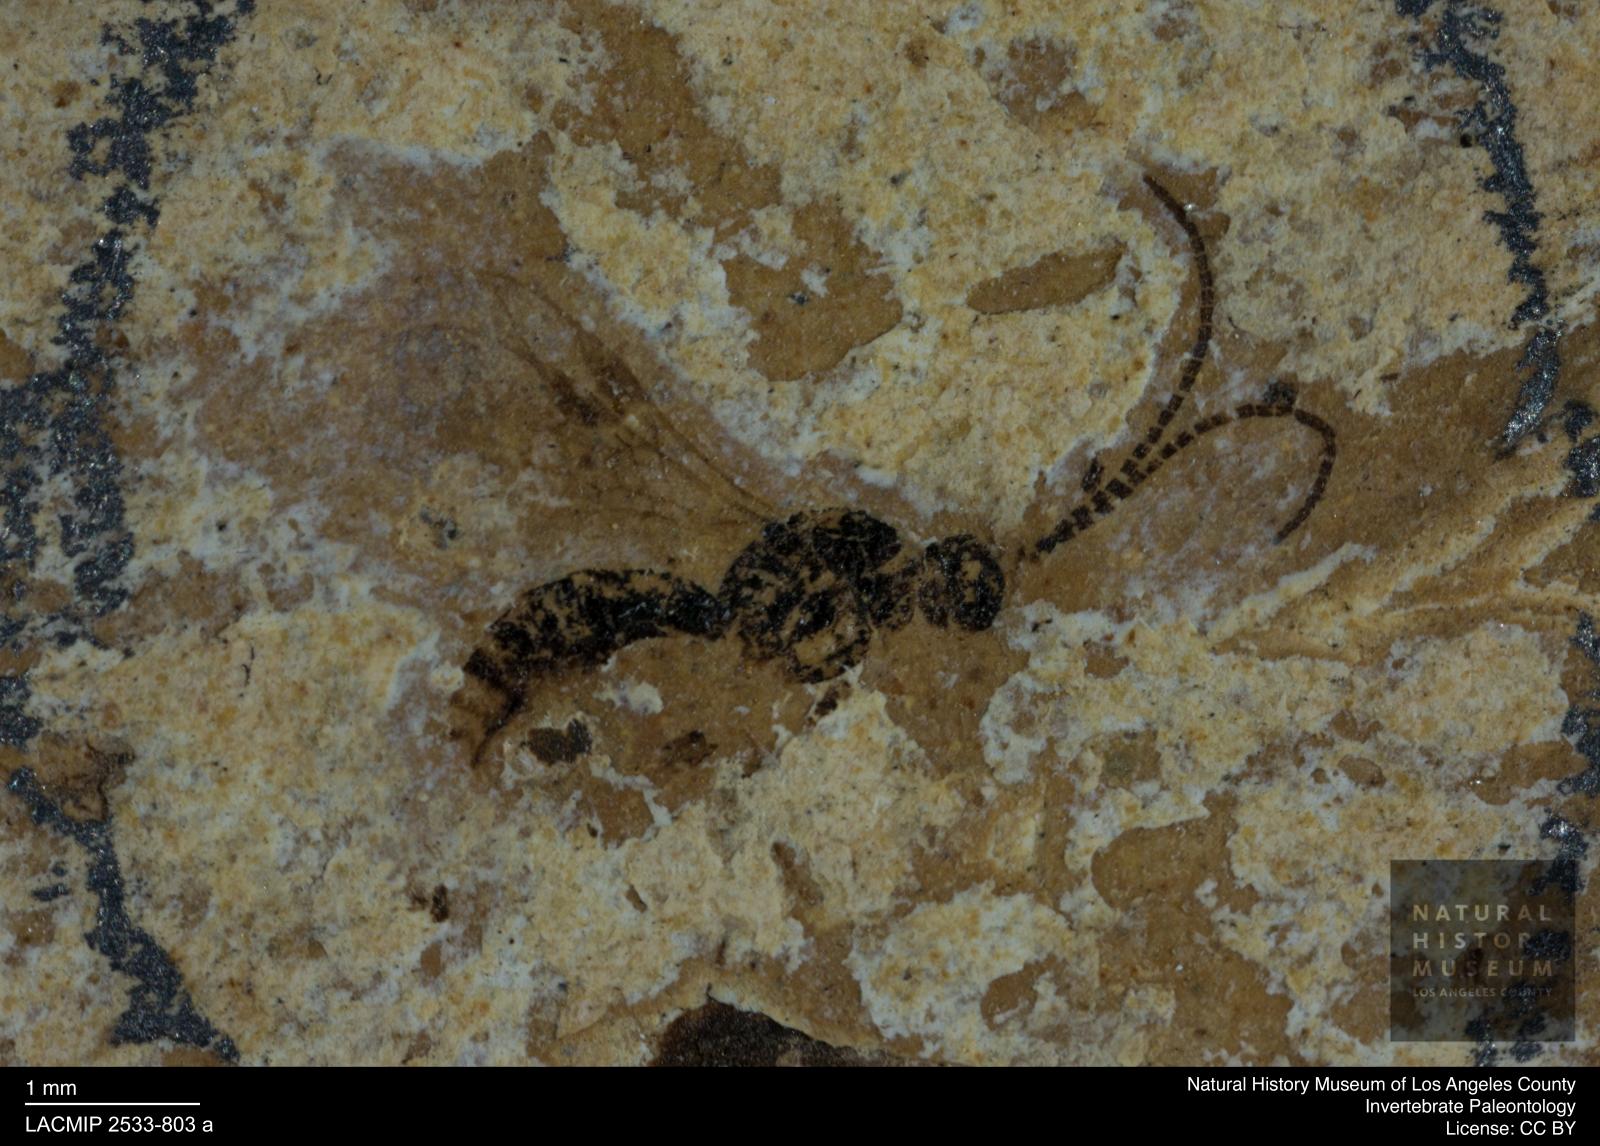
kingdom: Animalia
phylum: Arthropoda
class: Insecta
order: Hymenoptera
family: Braconidae
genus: Meteorus
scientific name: Meteorus atkinsae
